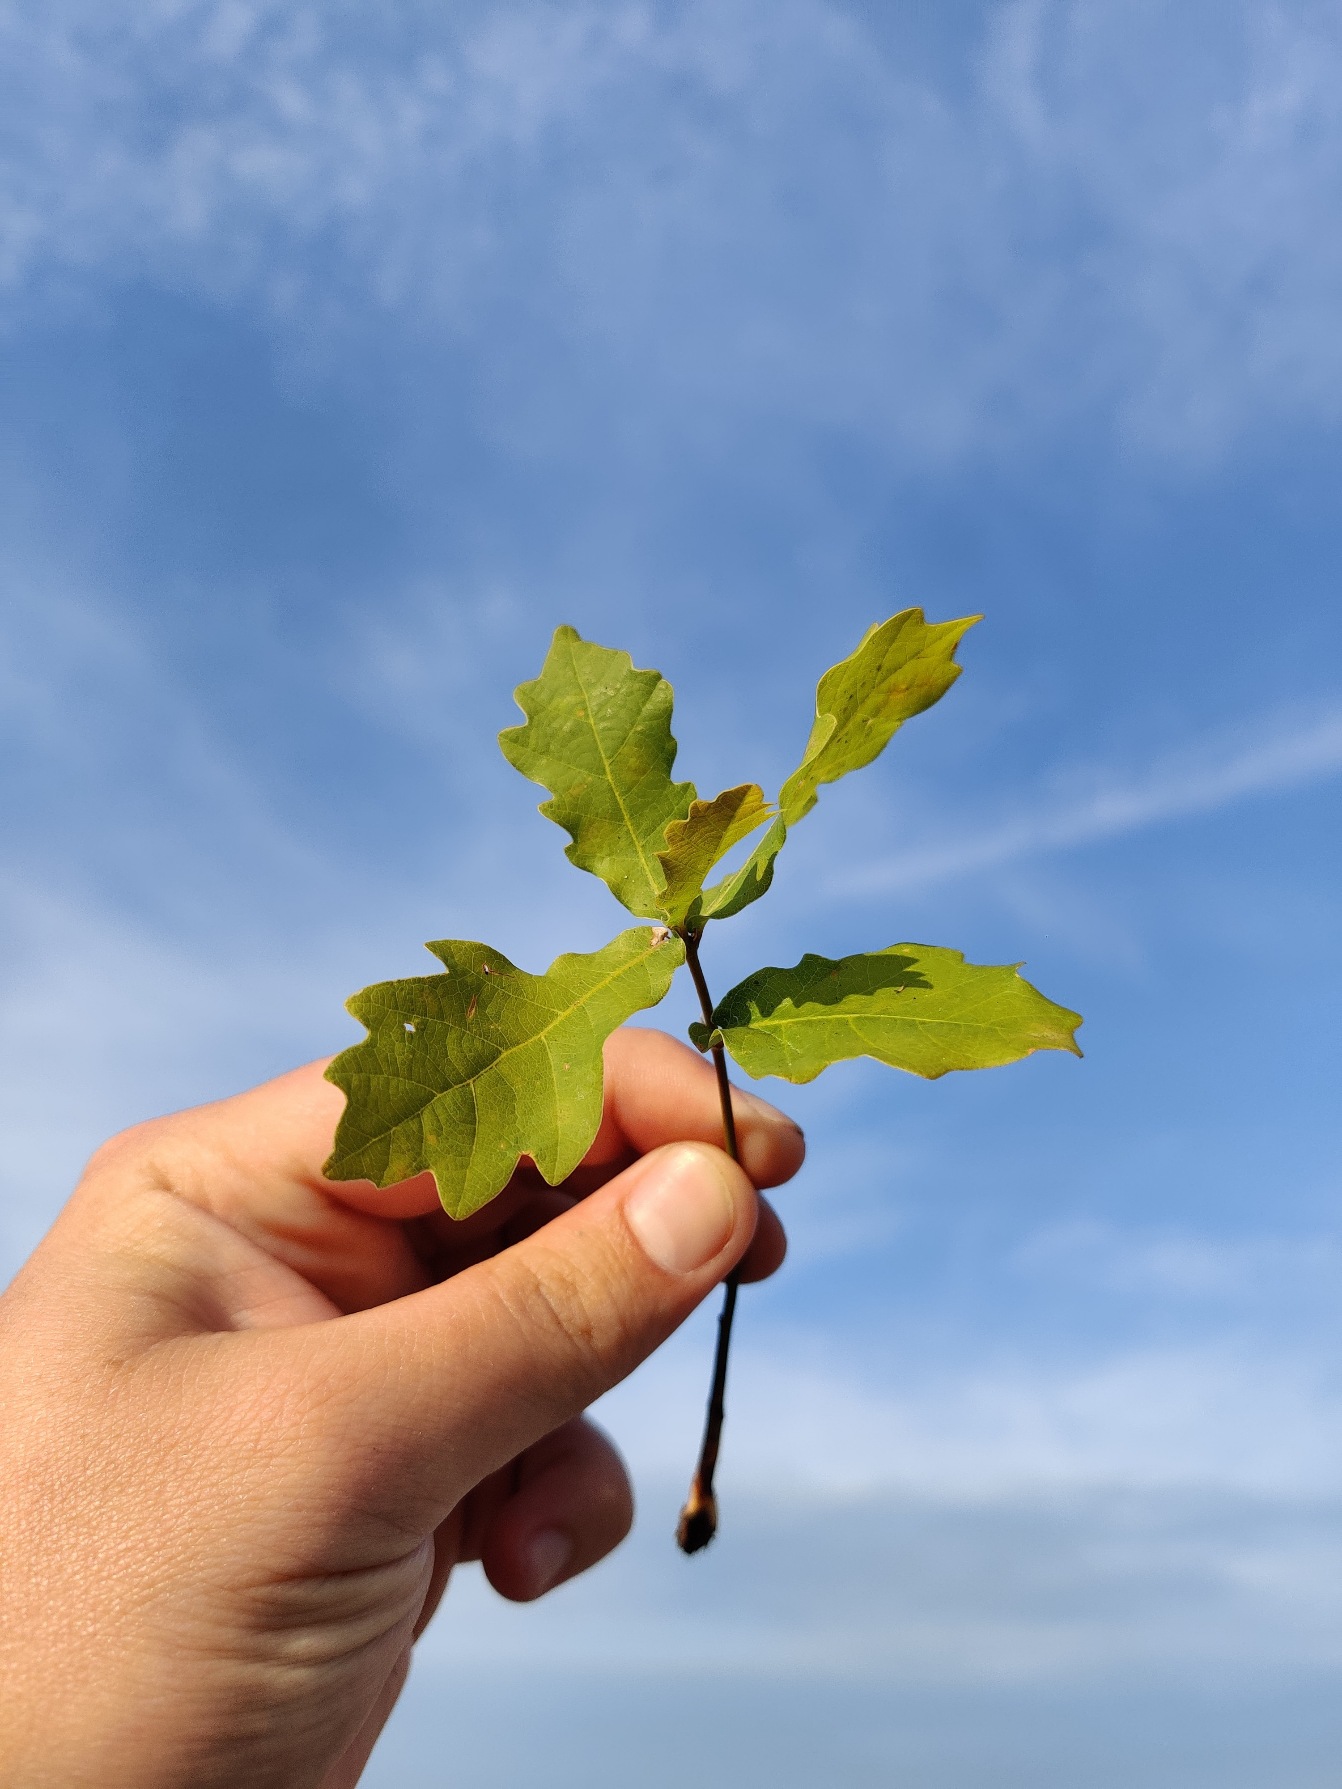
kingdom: Plantae
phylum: Tracheophyta
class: Magnoliopsida
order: Fagales
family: Fagaceae
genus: Quercus
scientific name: Quercus robur
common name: Stilk-eg/almindelig eg
